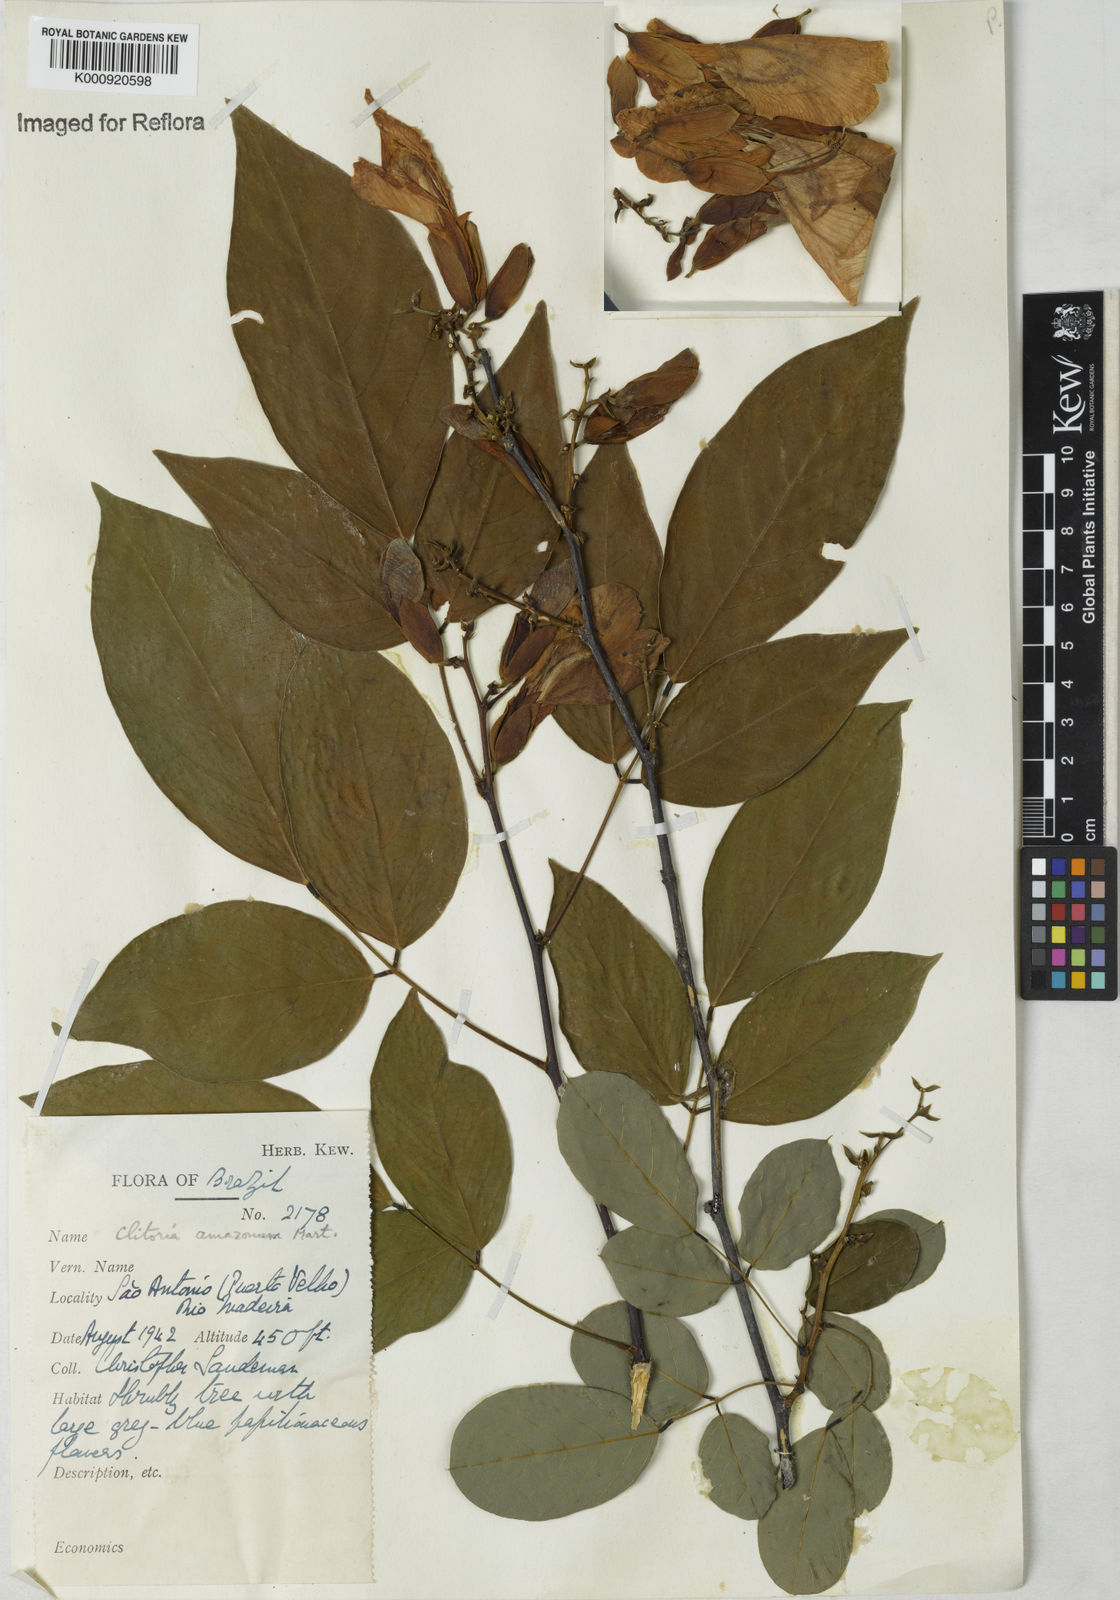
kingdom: Plantae
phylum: Tracheophyta
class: Magnoliopsida
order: Fabales
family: Fabaceae
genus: Clitoria
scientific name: Clitoria amazonum
